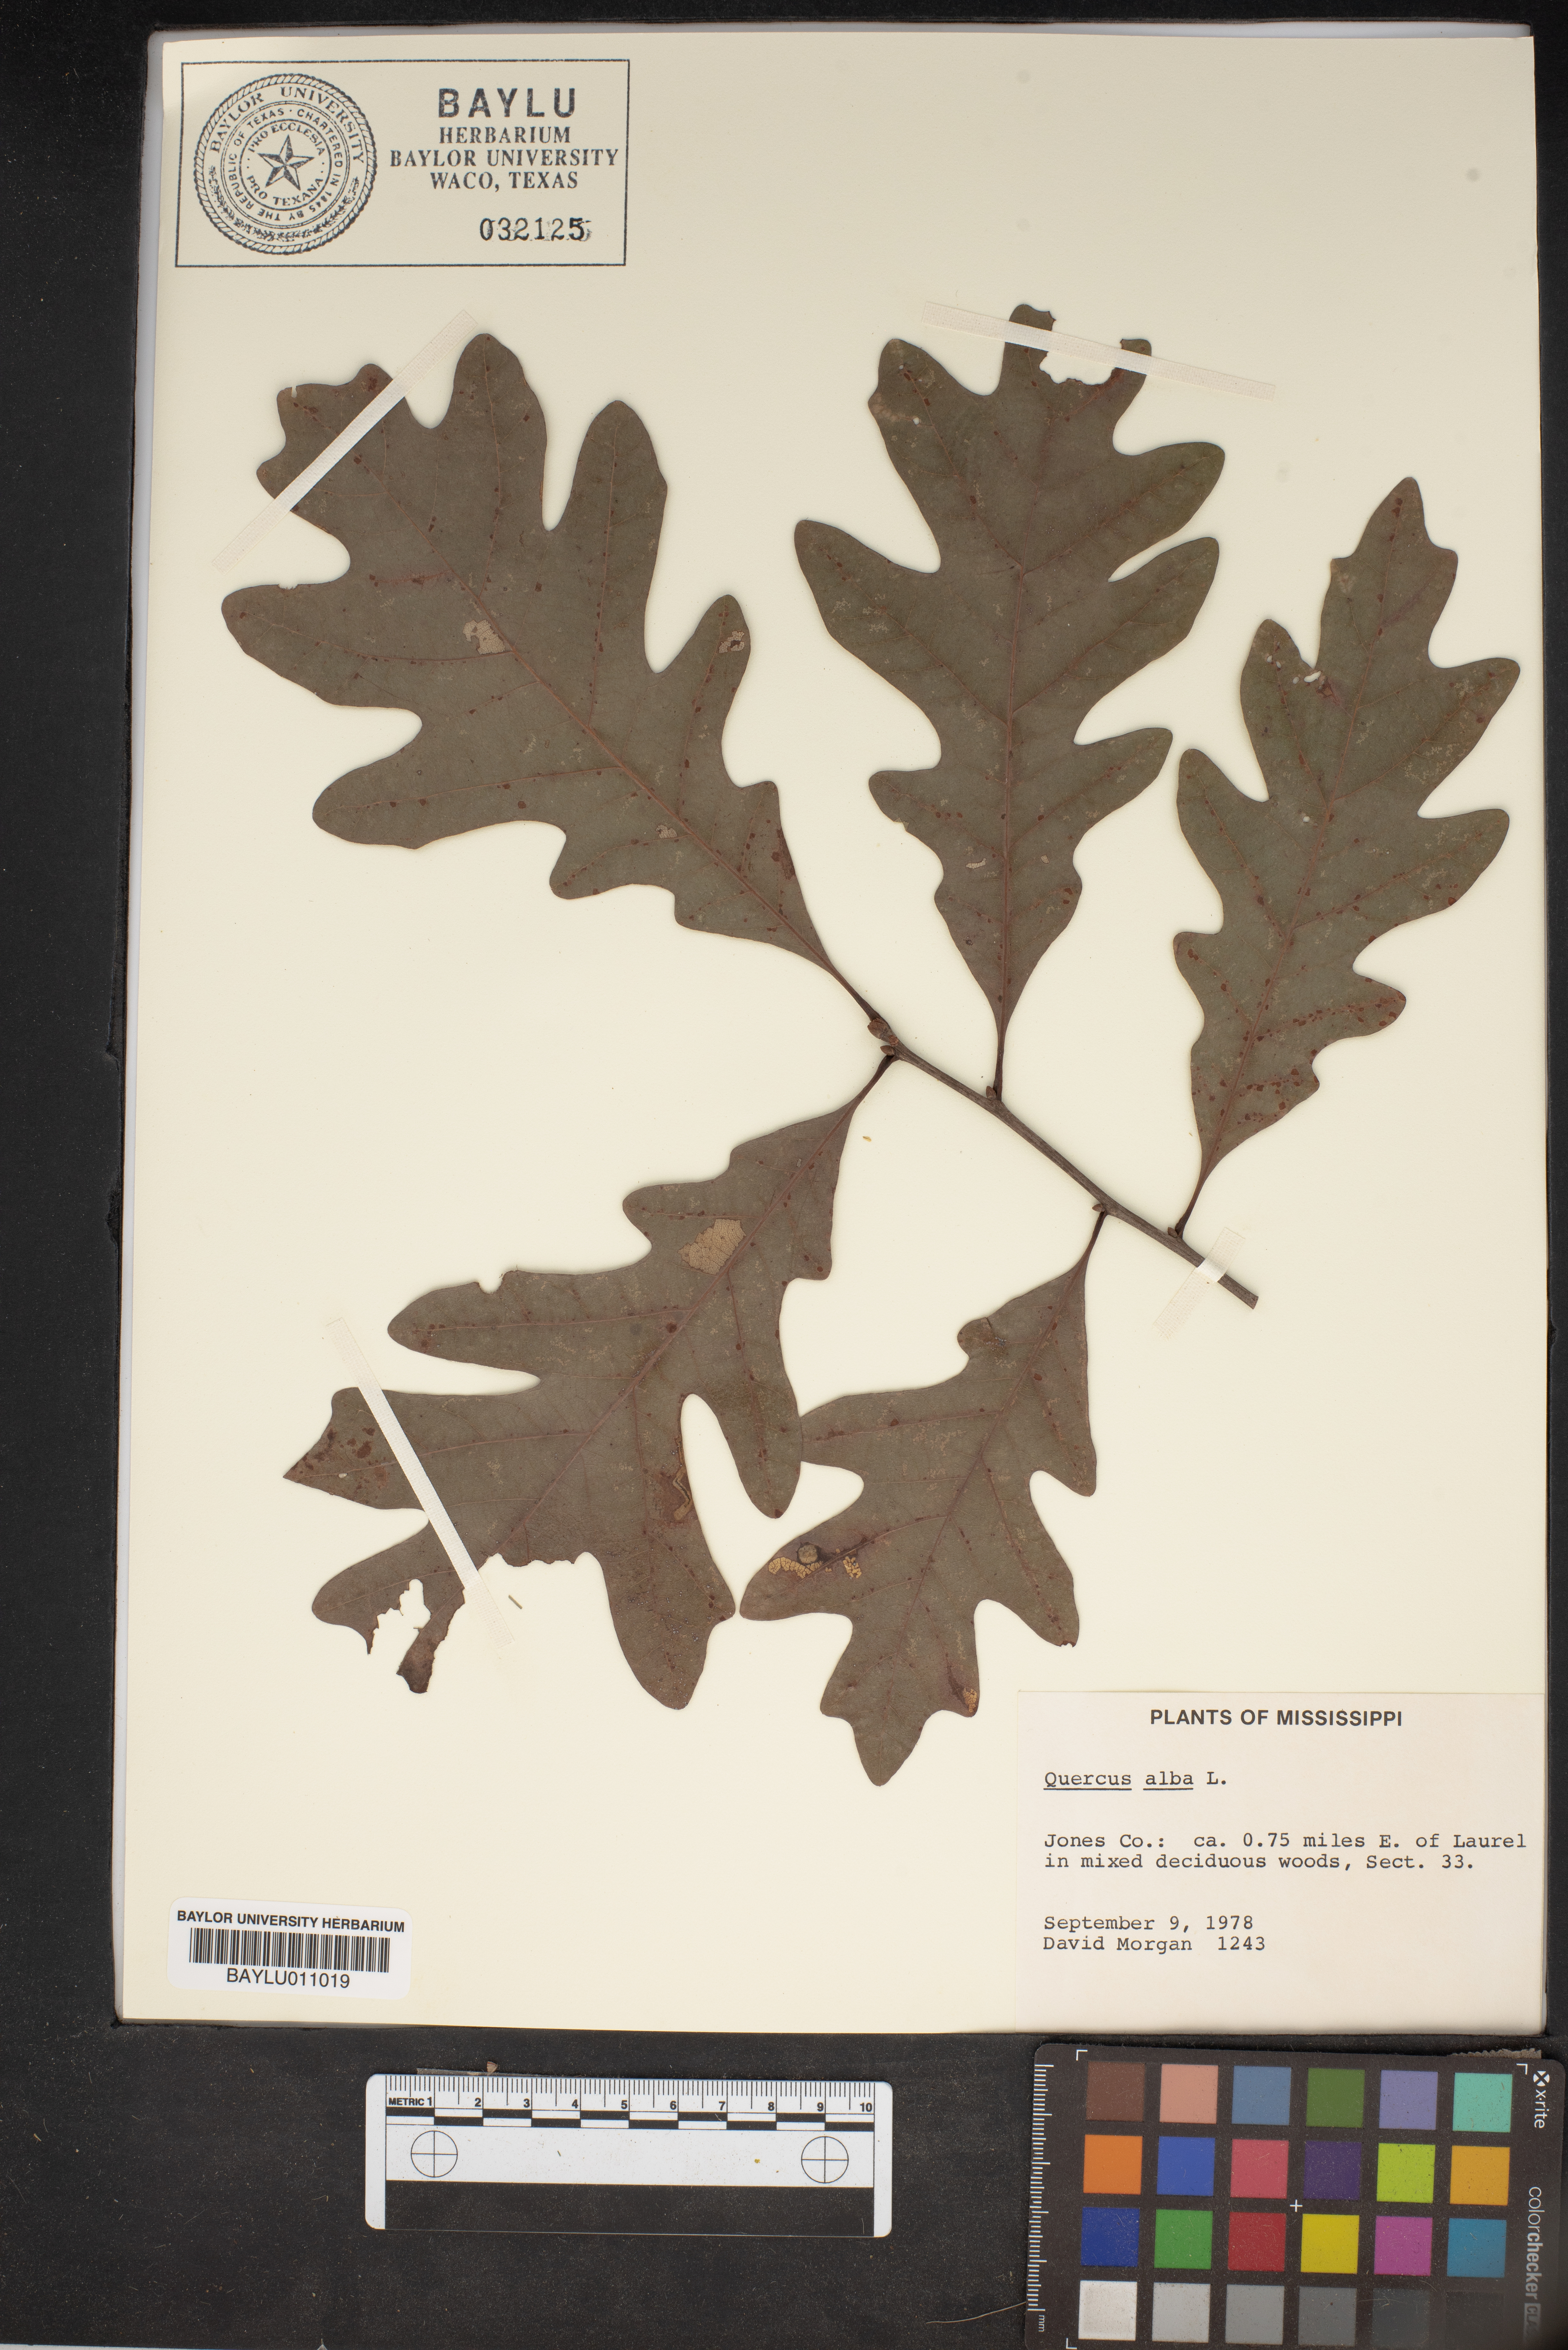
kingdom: Plantae
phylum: Tracheophyta
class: Magnoliopsida
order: Fagales
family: Fagaceae
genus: Quercus
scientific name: Quercus alba
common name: White oak
